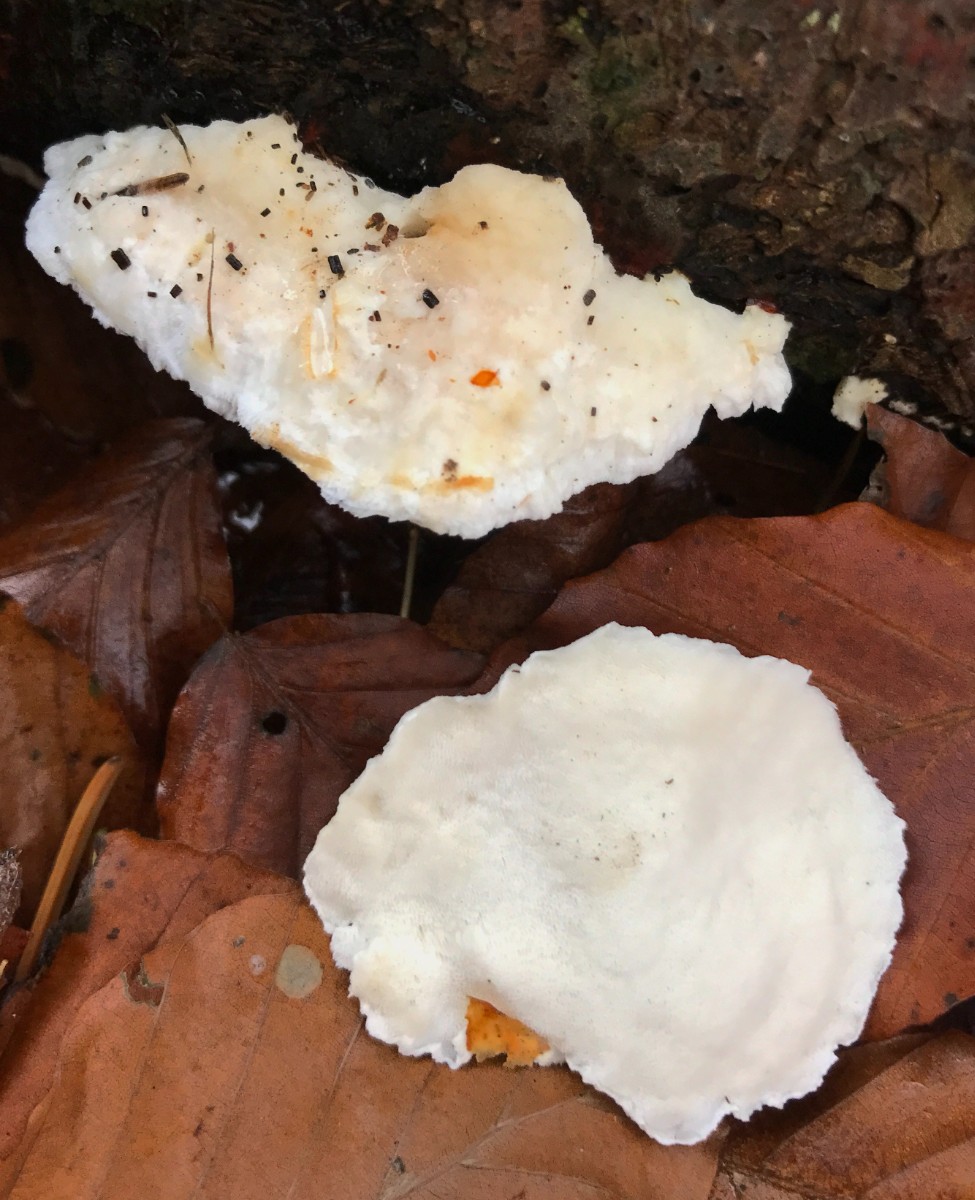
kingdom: Fungi
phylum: Basidiomycota
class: Agaricomycetes
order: Polyporales
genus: Amaropostia
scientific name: Amaropostia stiptica
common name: bitter kødporesvamp
